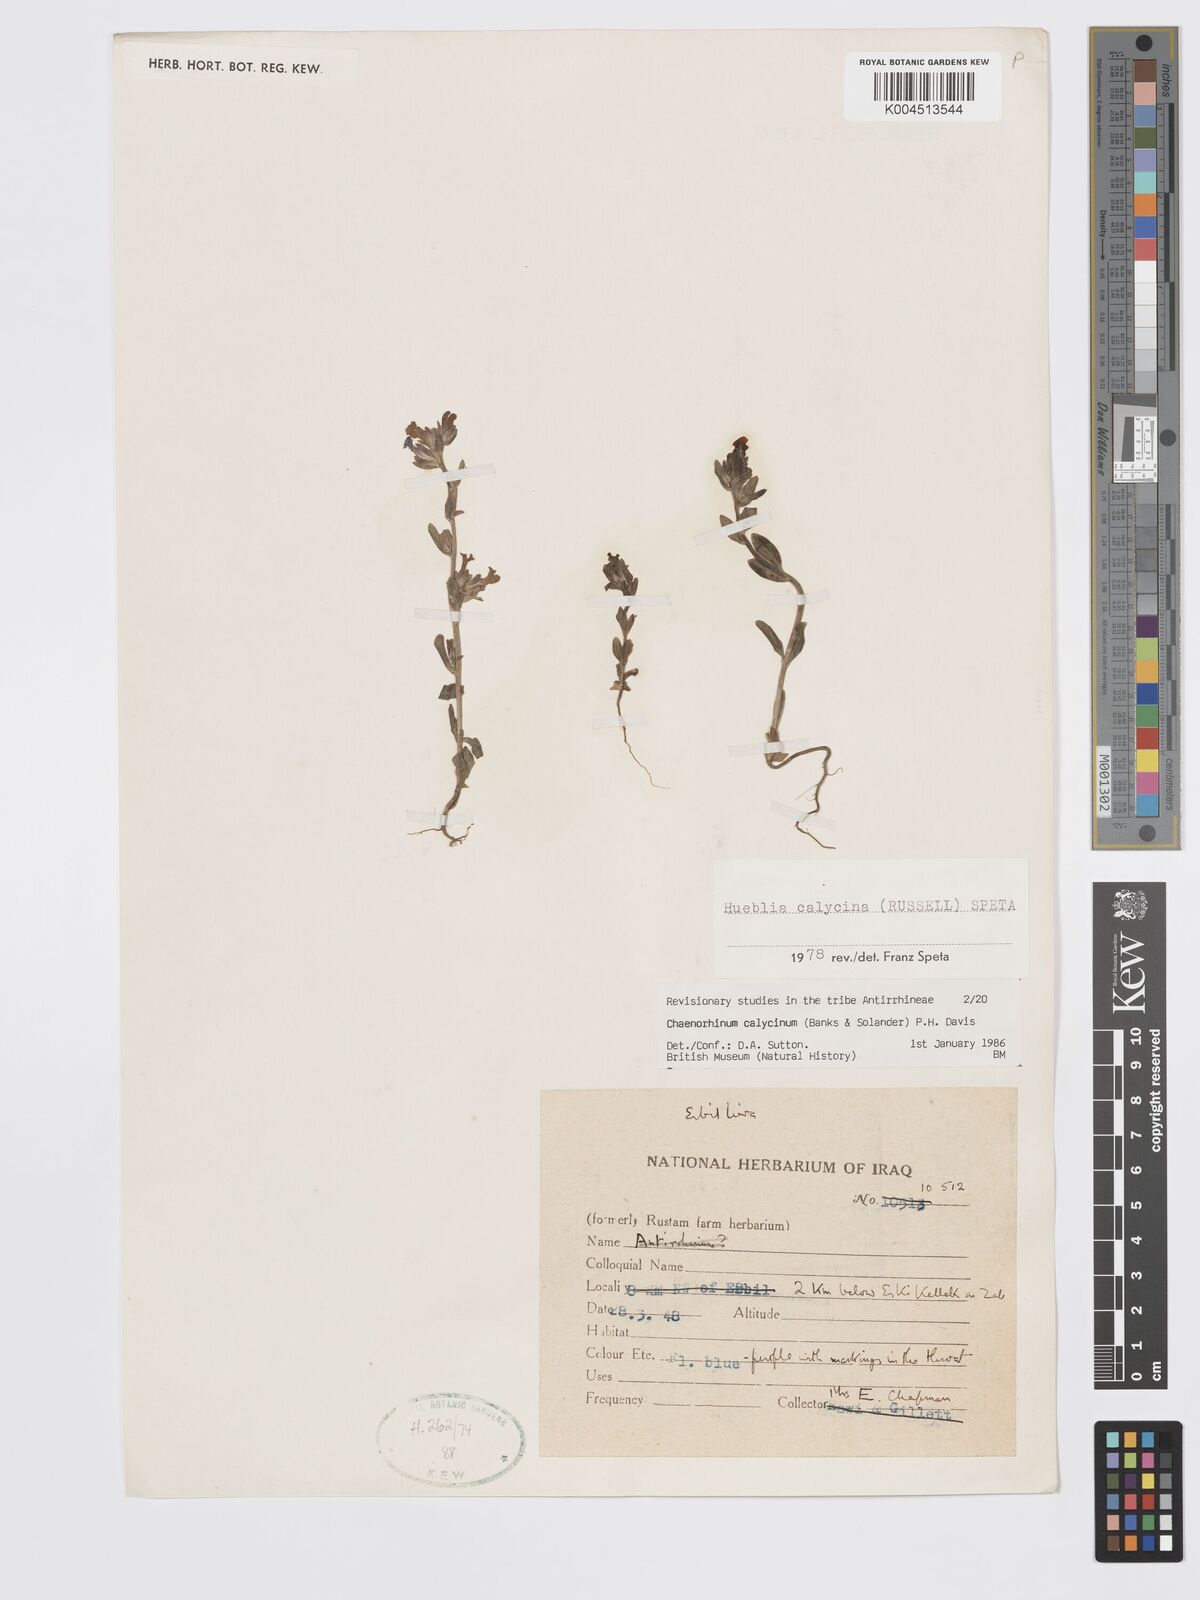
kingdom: Plantae
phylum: Tracheophyta
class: Magnoliopsida
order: Lamiales
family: Plantaginaceae
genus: Chaenorhinum
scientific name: Chaenorhinum calycinum
